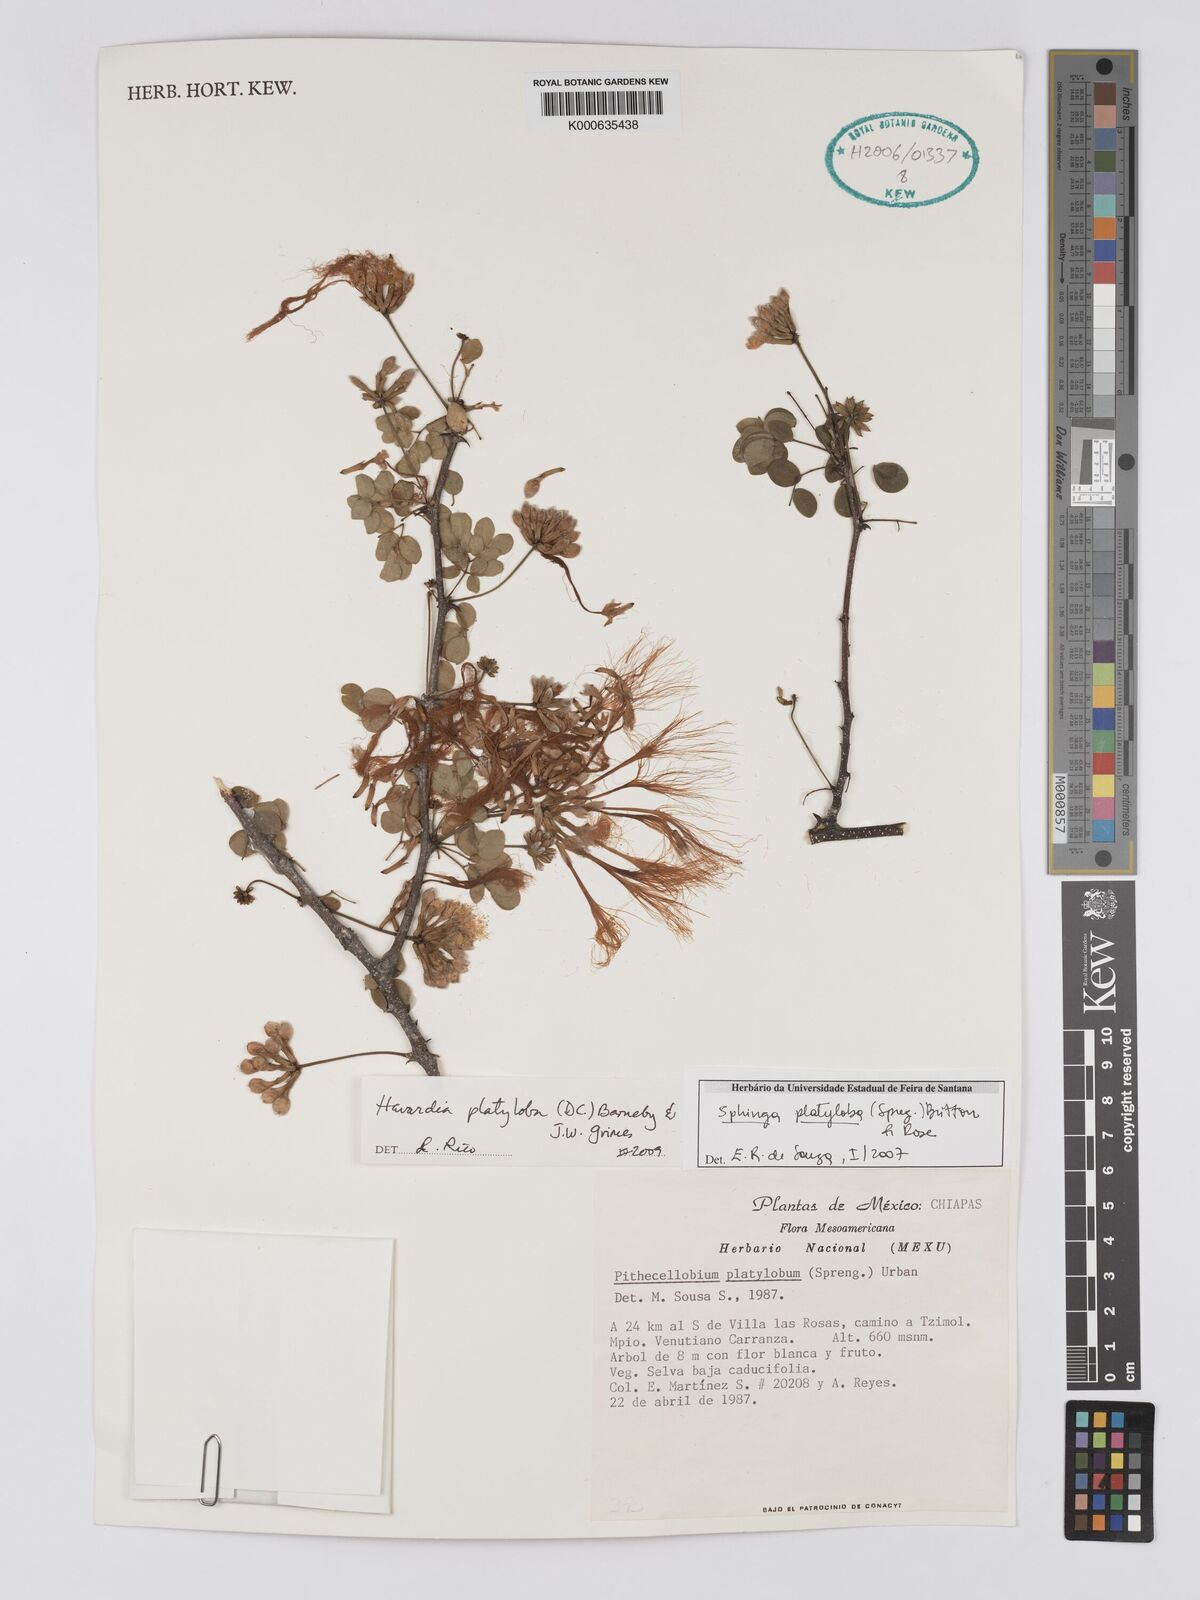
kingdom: Plantae
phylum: Tracheophyta
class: Magnoliopsida
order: Fabales
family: Fabaceae
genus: Havardia
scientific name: Havardia
